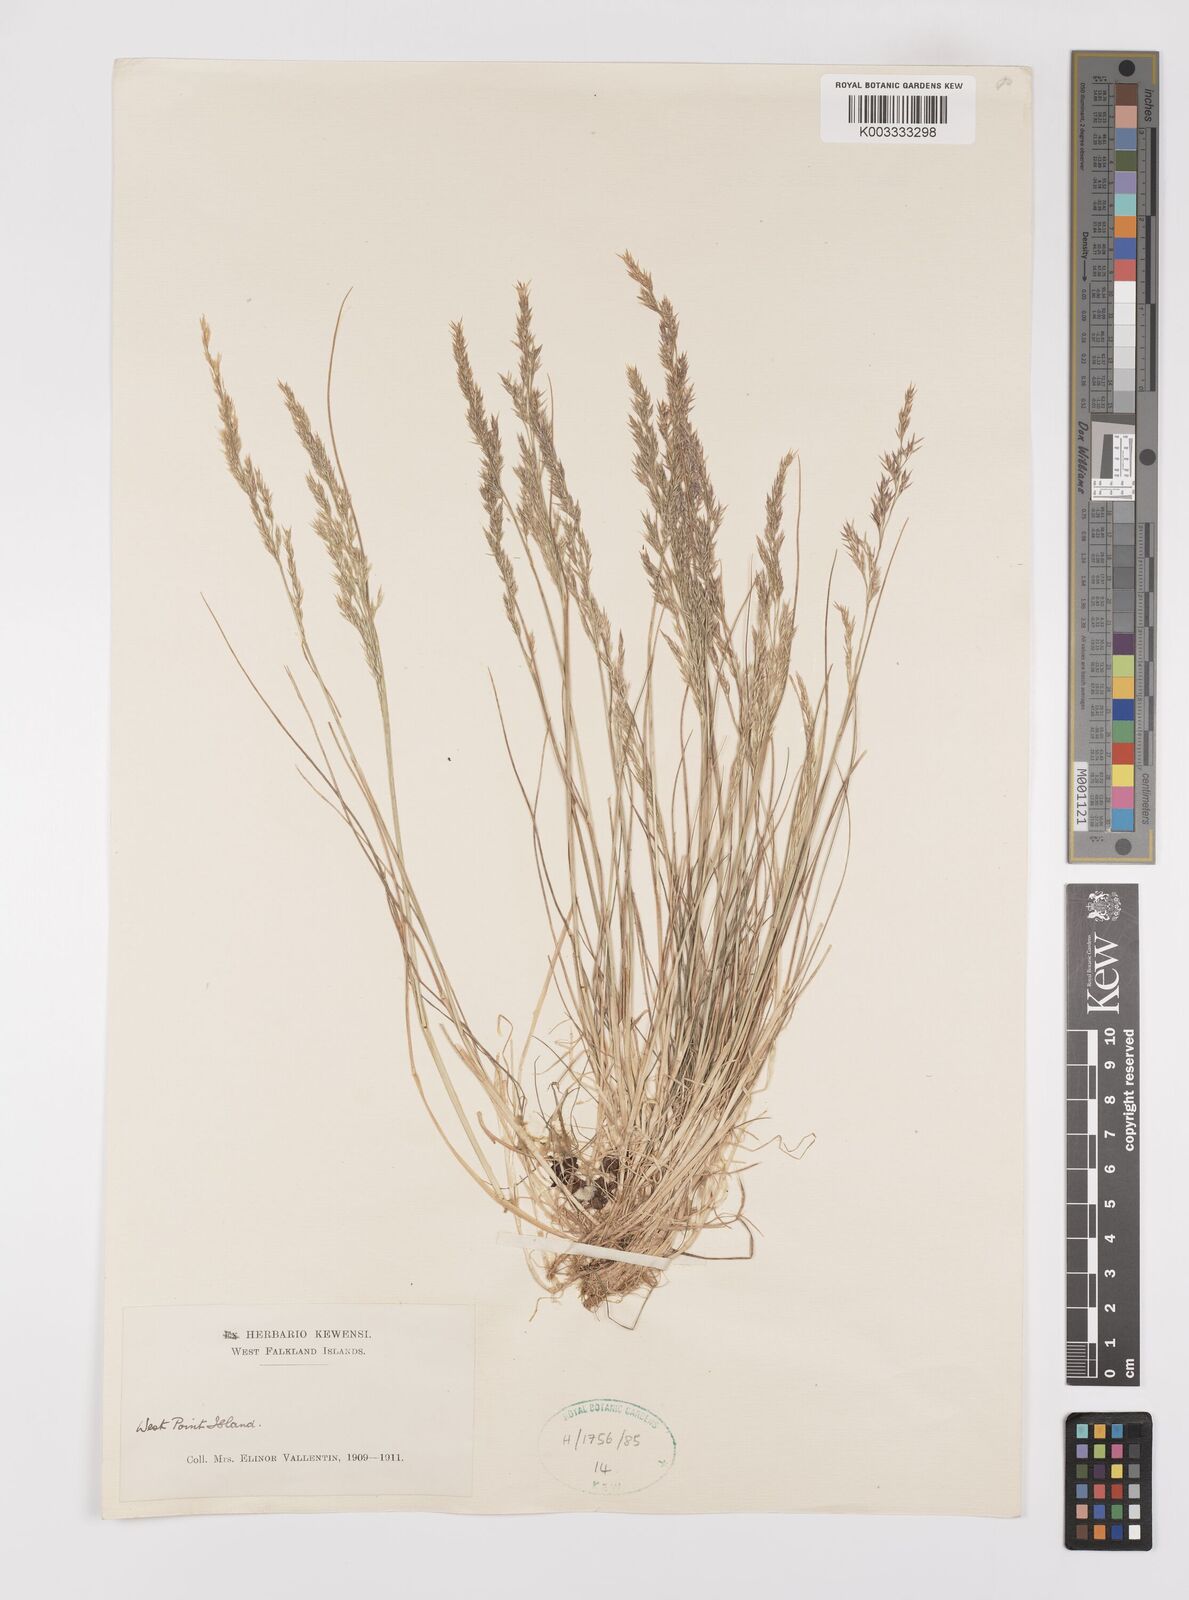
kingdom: Plantae
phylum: Tracheophyta
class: Liliopsida
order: Poales
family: Poaceae
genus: Polypogon
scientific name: Polypogon magellanicus
